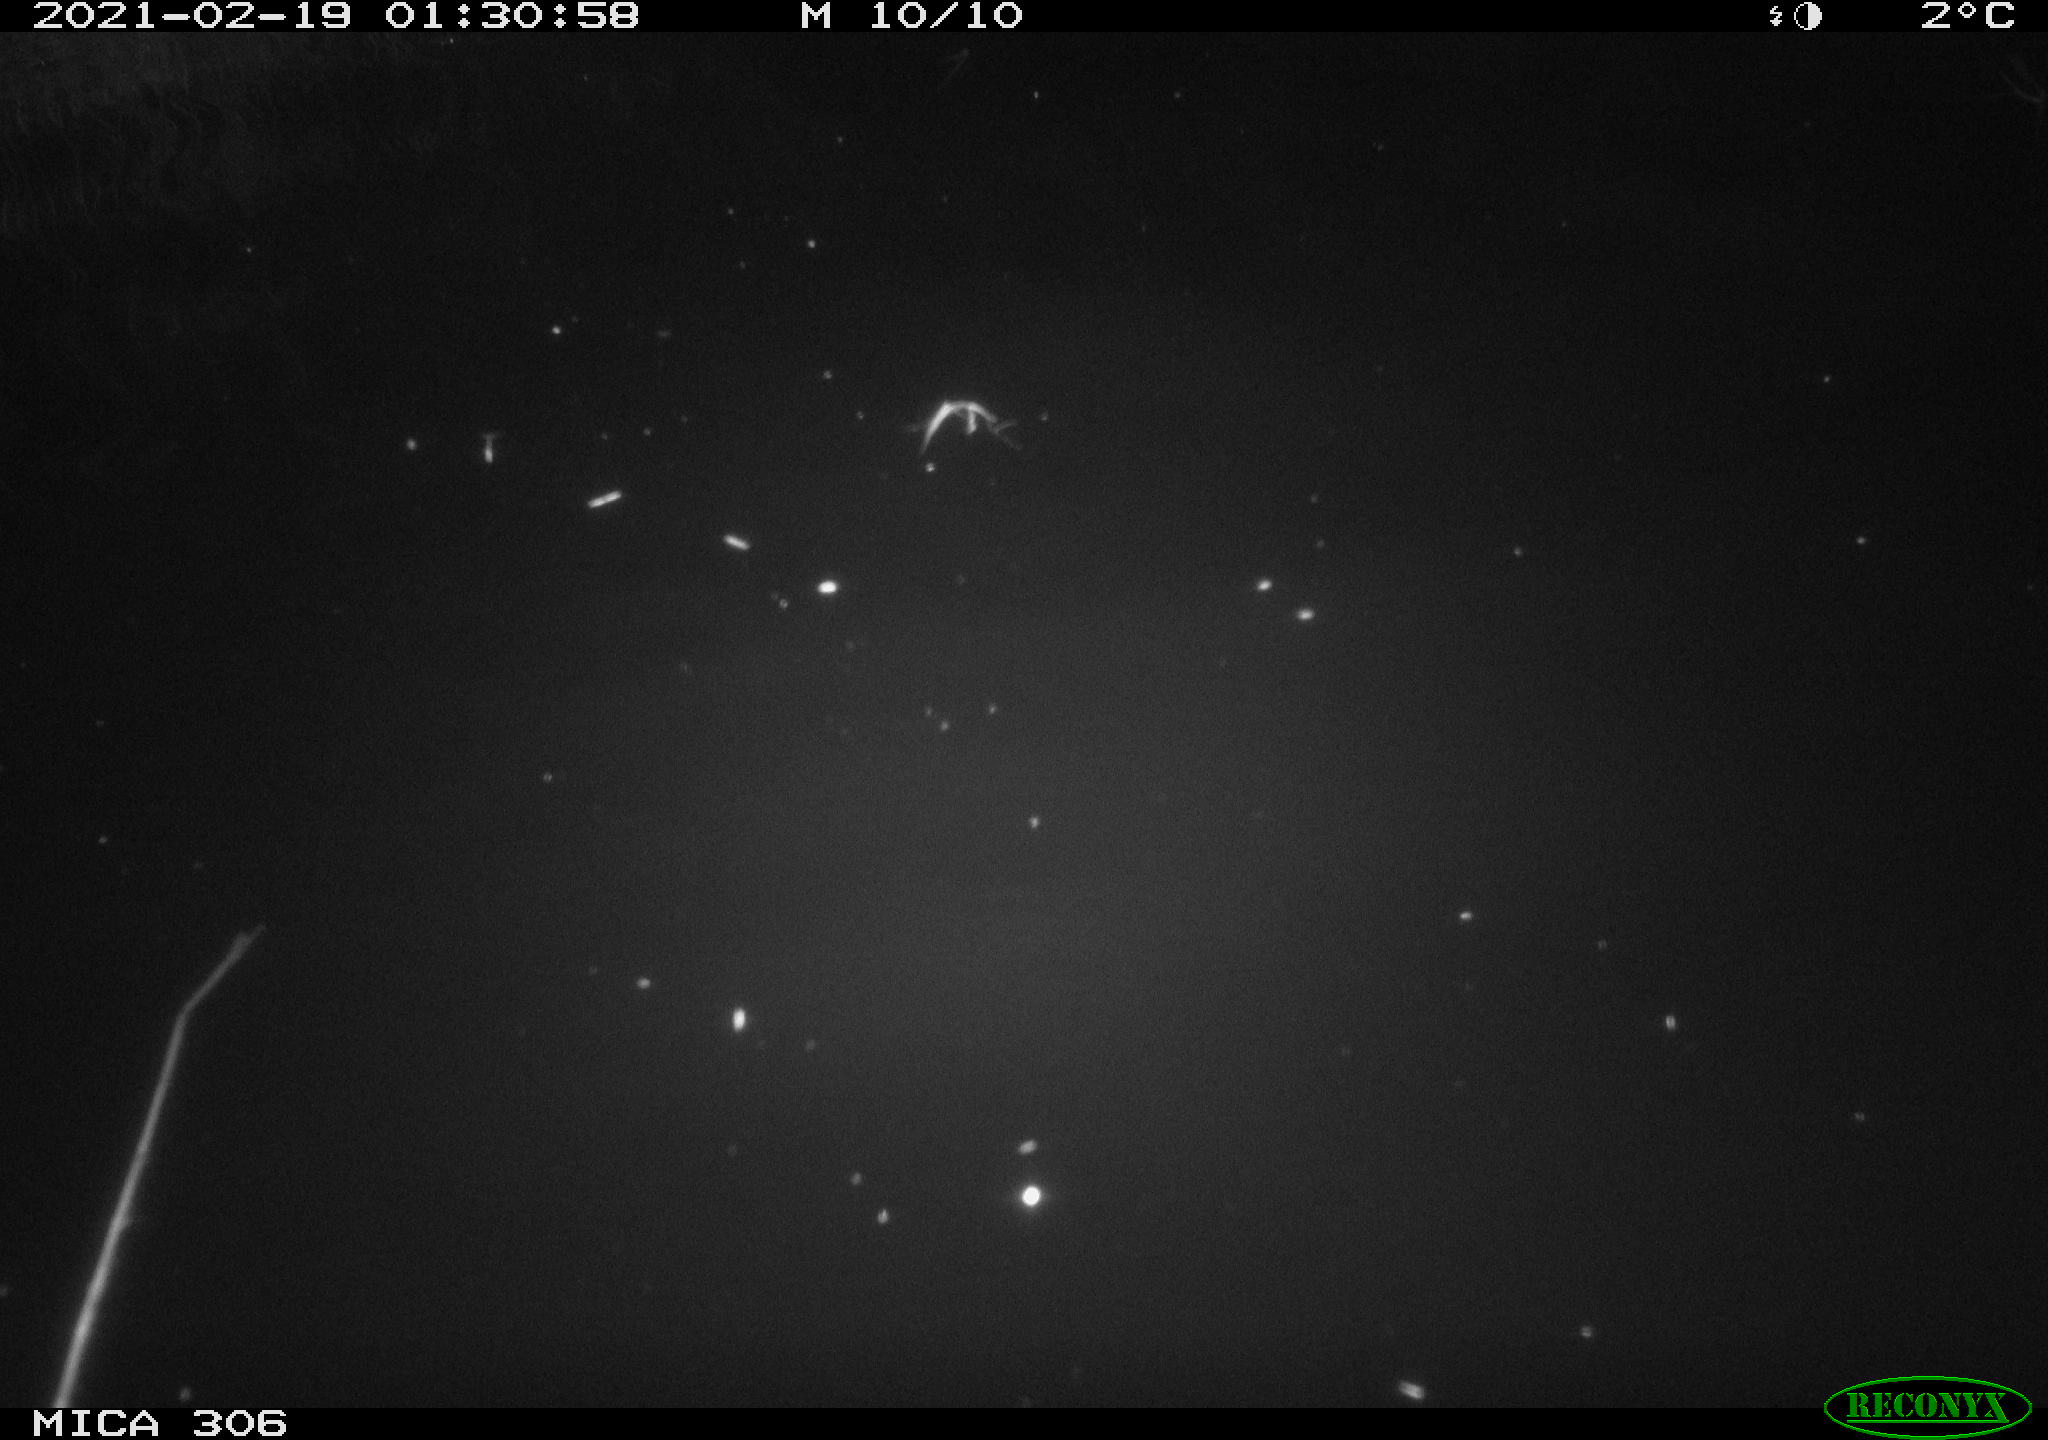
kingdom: Animalia
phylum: Chordata
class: Mammalia
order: Rodentia
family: Cricetidae
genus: Ondatra
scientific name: Ondatra zibethicus
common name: Muskrat
